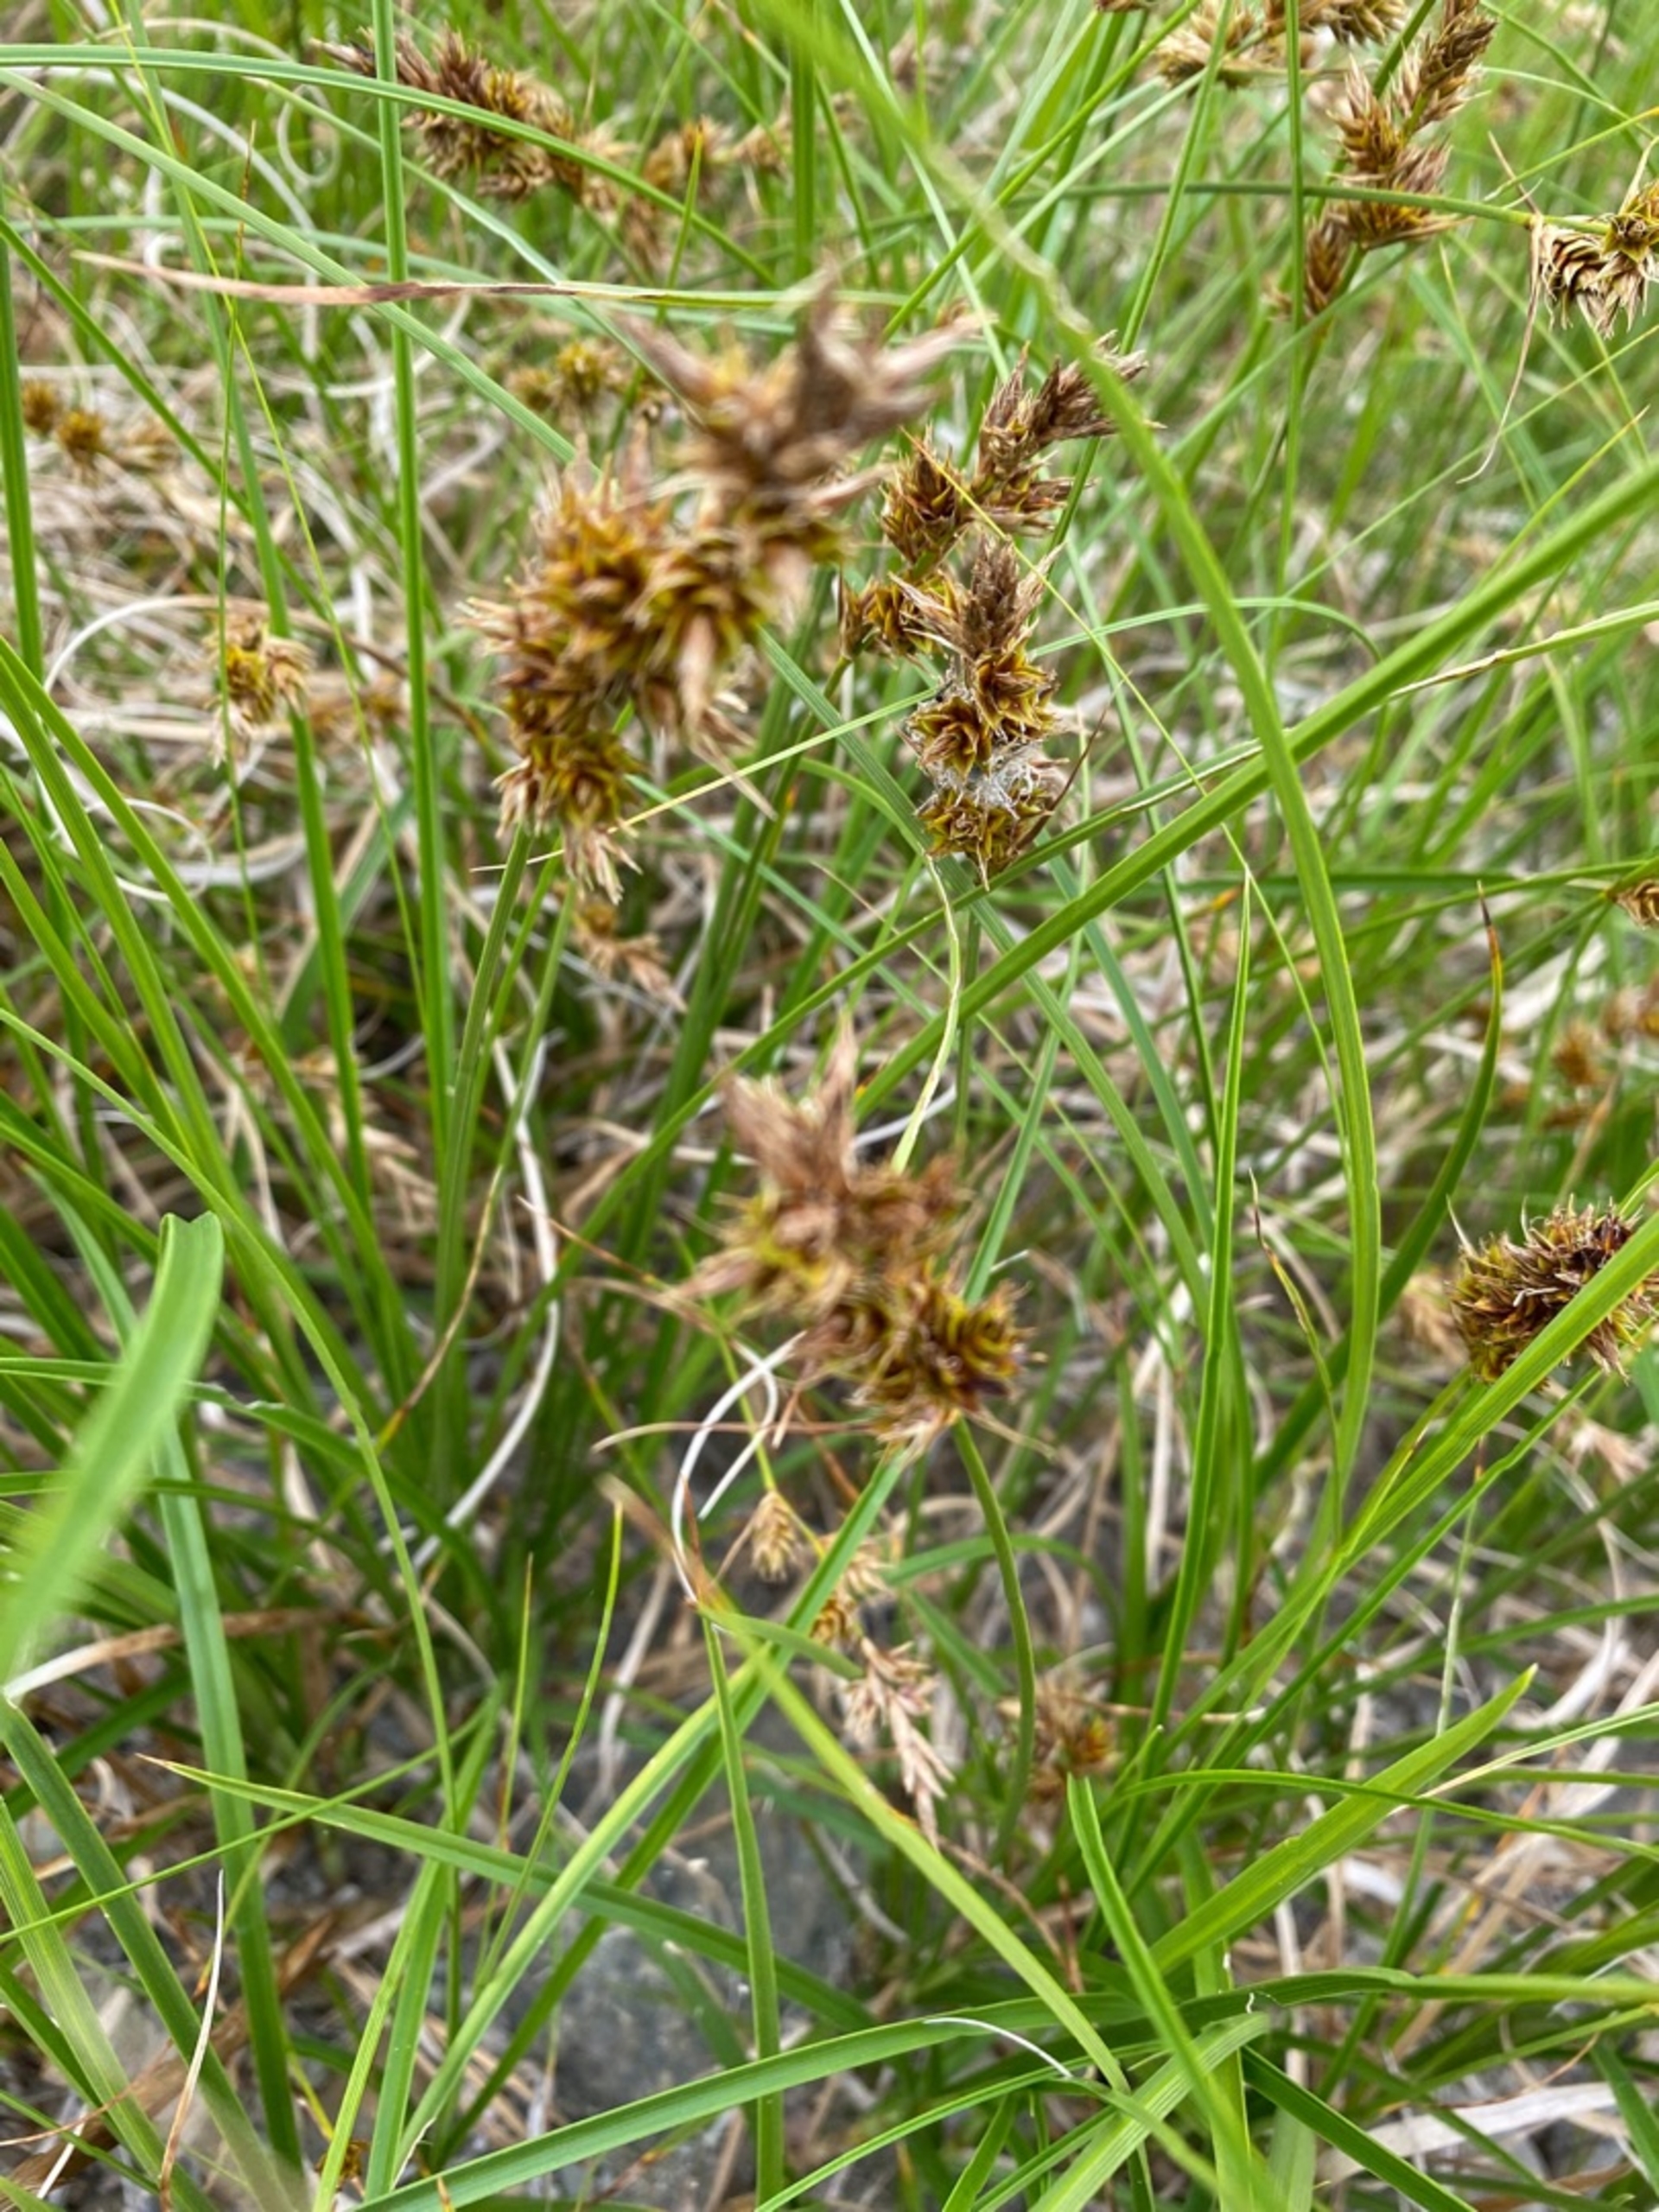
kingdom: Plantae
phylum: Tracheophyta
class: Liliopsida
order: Poales
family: Cyperaceae
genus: Carex
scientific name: Carex arenaria
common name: Sand-star
